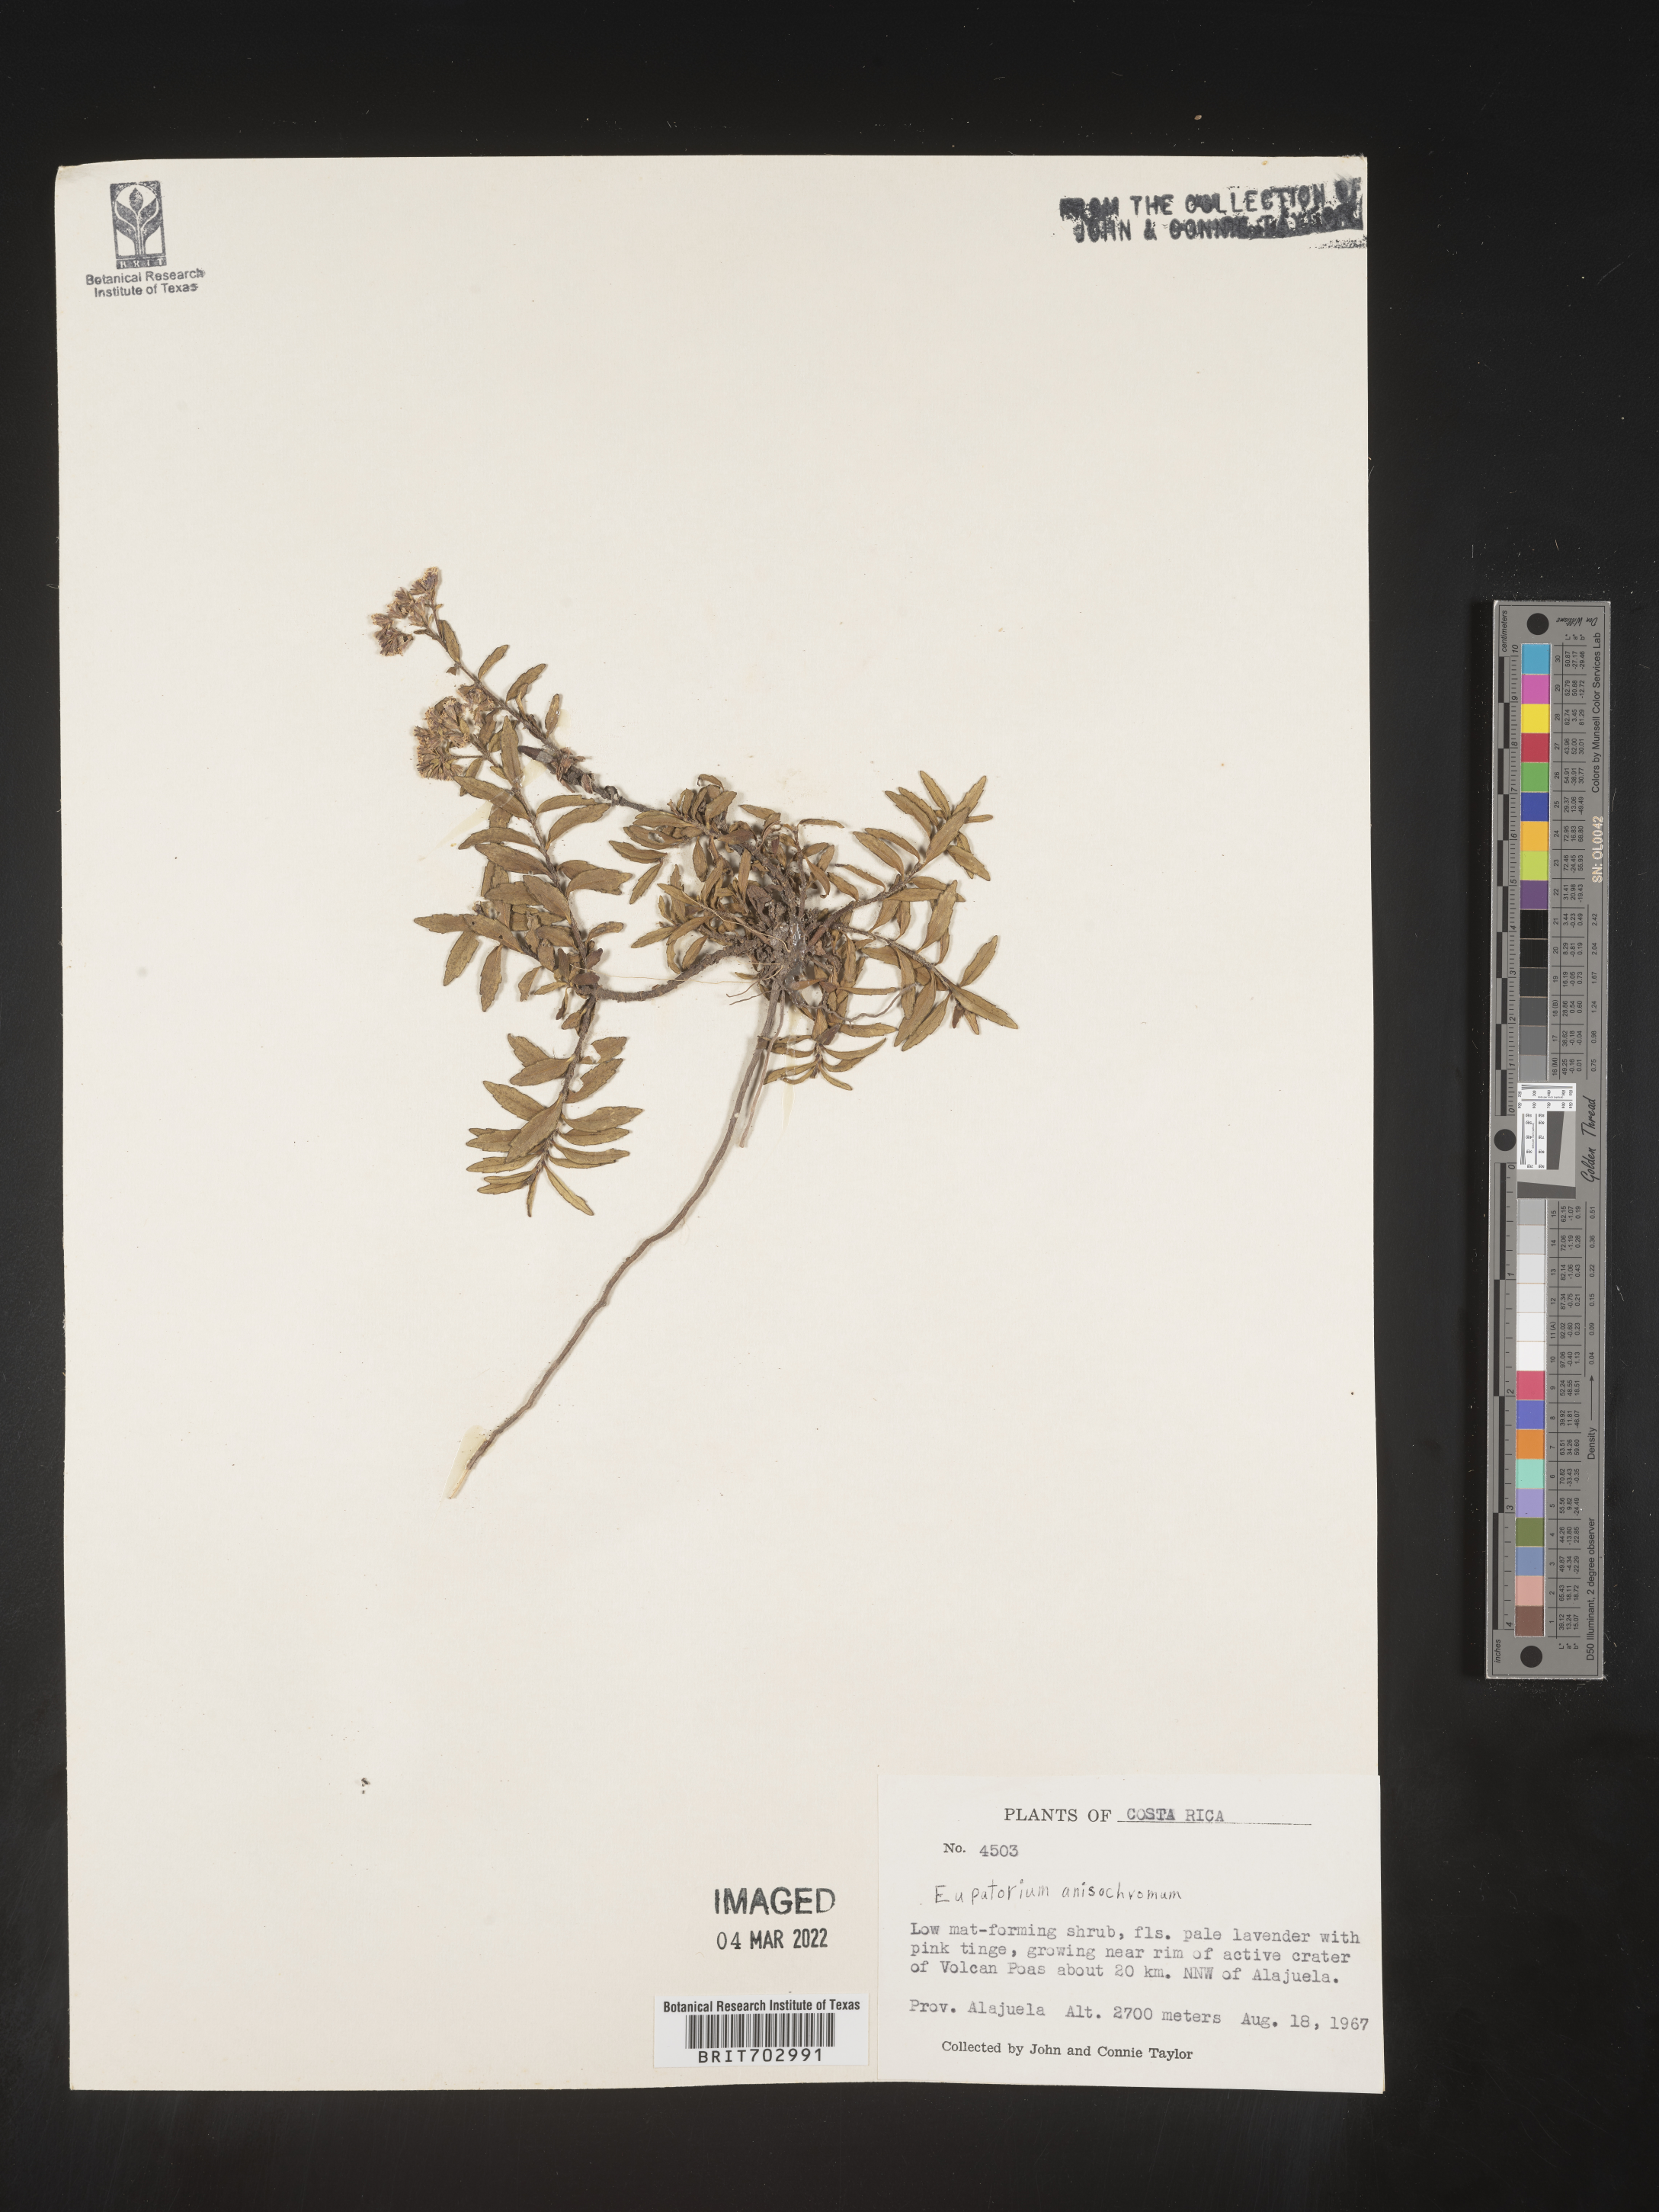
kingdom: Plantae
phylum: Tracheophyta
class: Magnoliopsida
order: Asterales
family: Asteraceae
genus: Eupatorium
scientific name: Eupatorium
